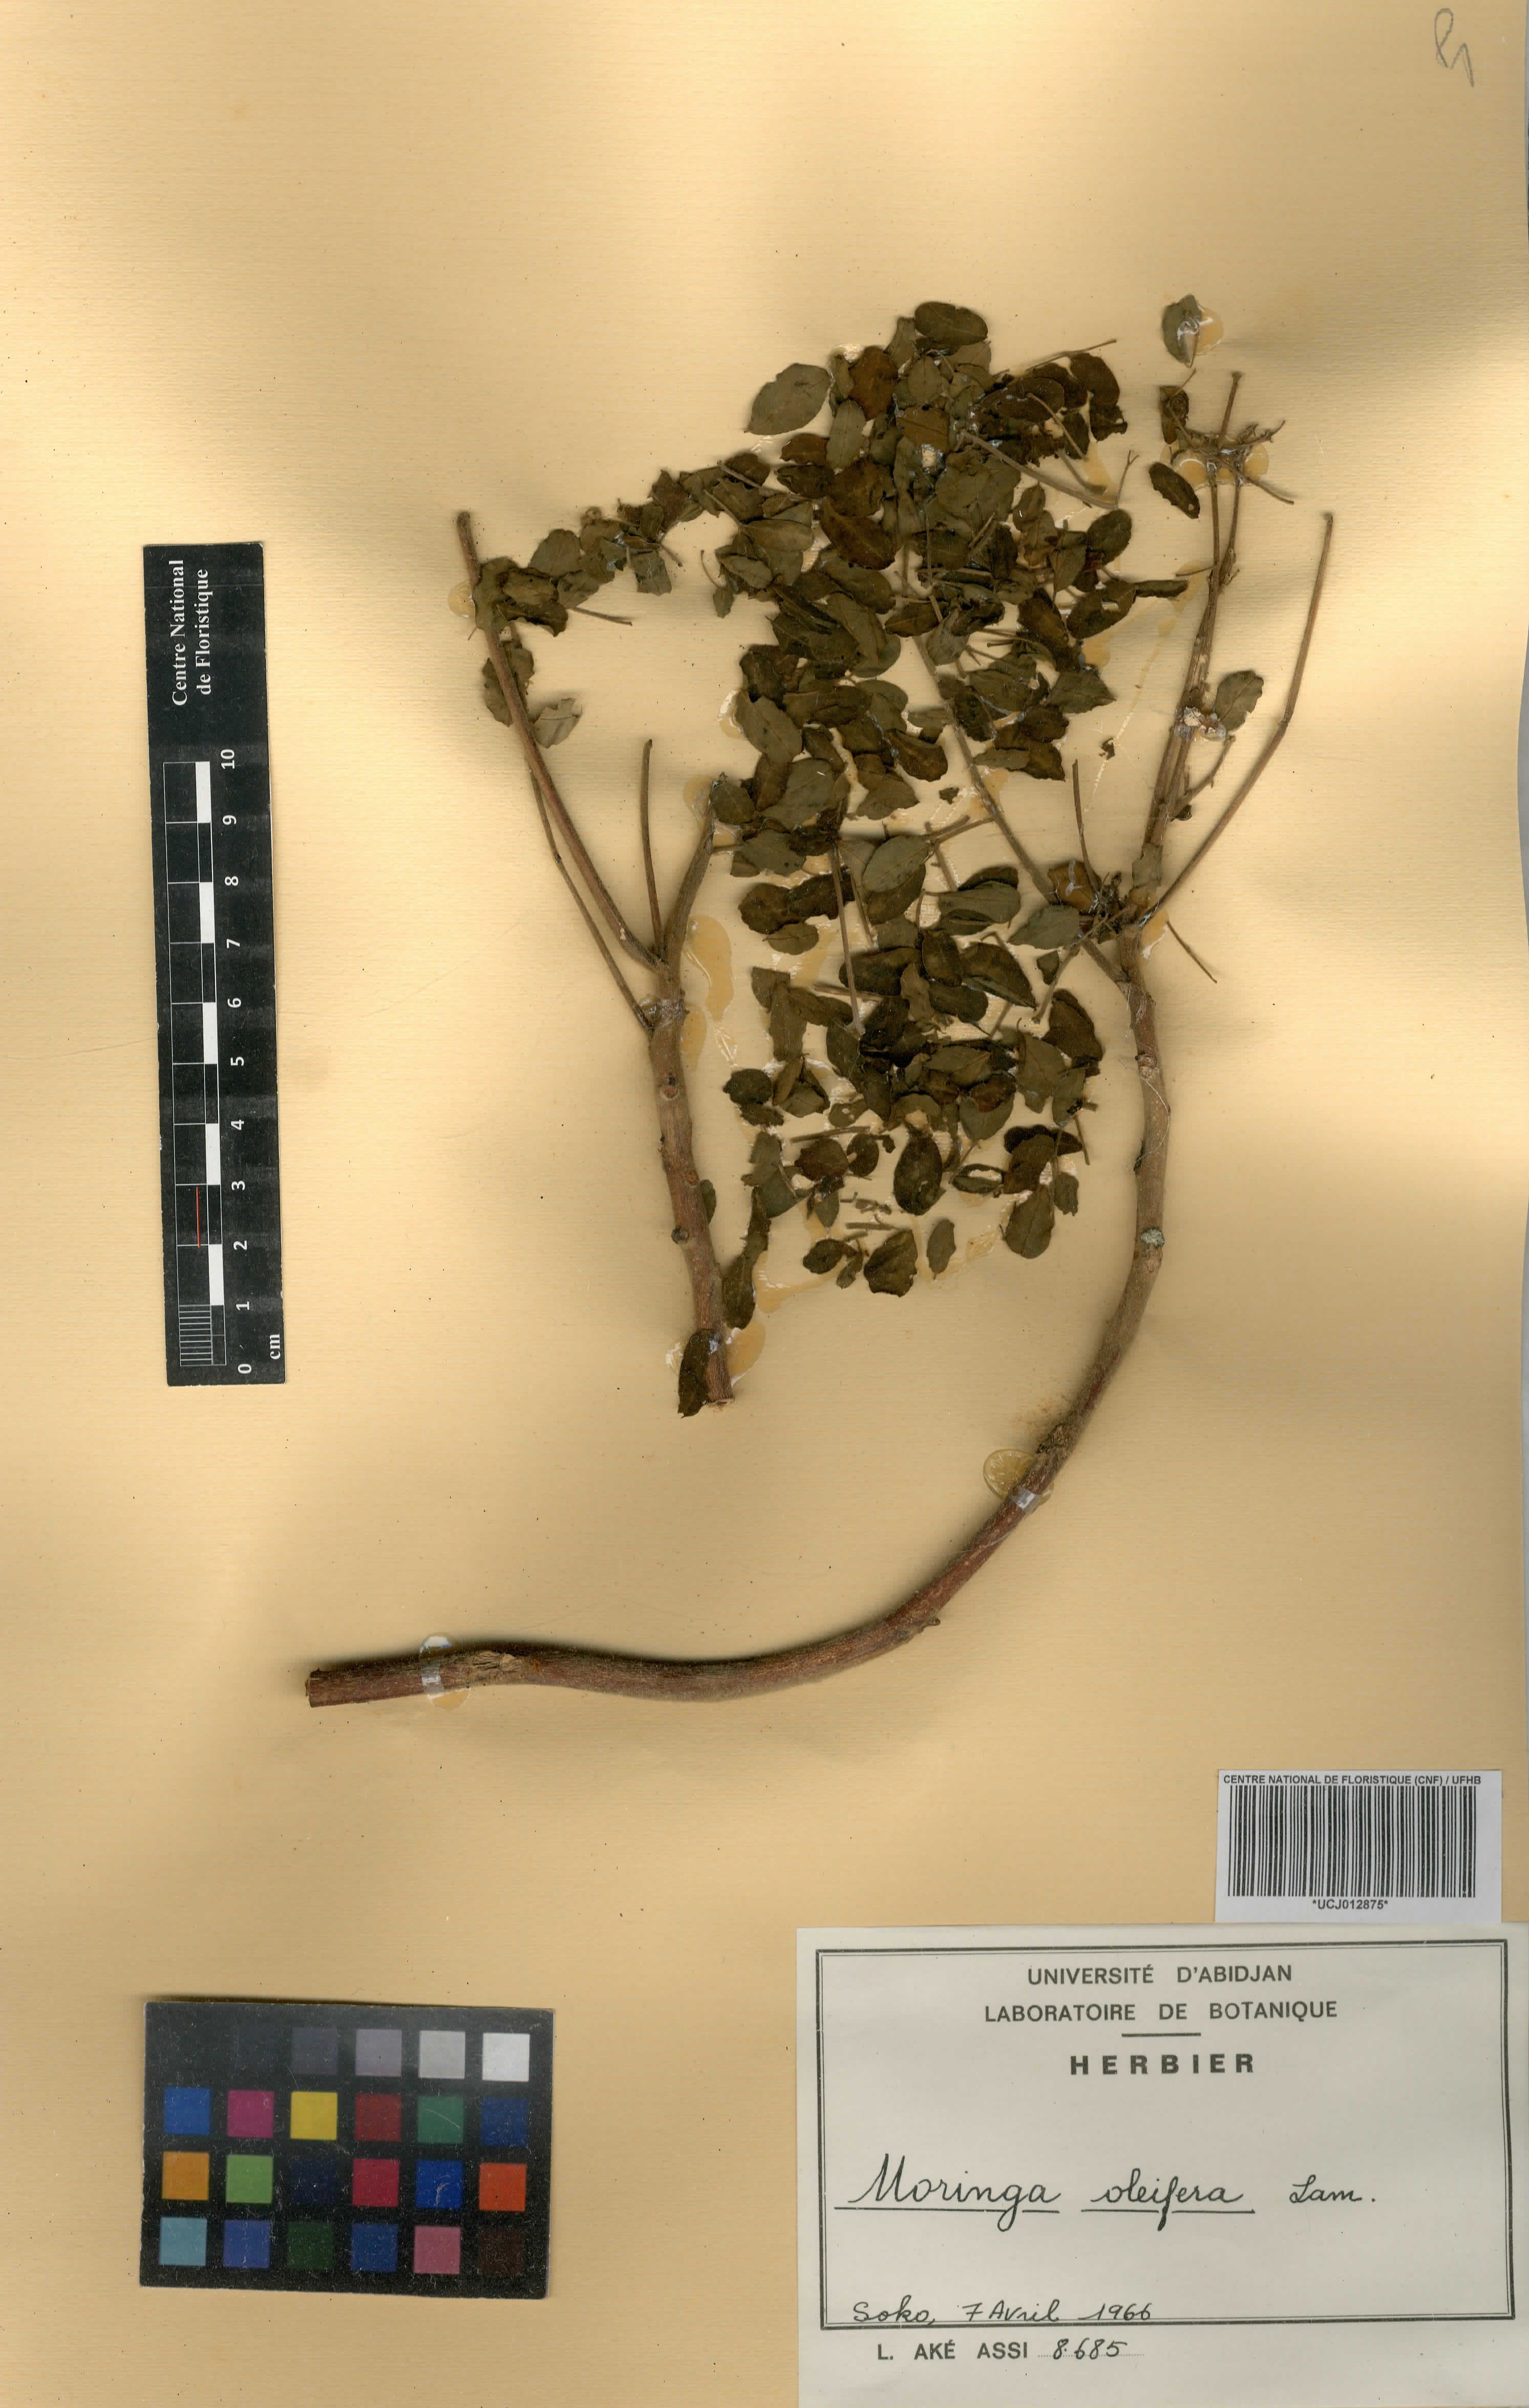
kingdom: Plantae
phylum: Tracheophyta
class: Magnoliopsida
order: Brassicales
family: Moringaceae
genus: Moringa
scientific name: Moringa oleifera
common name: Horseradish-tree
